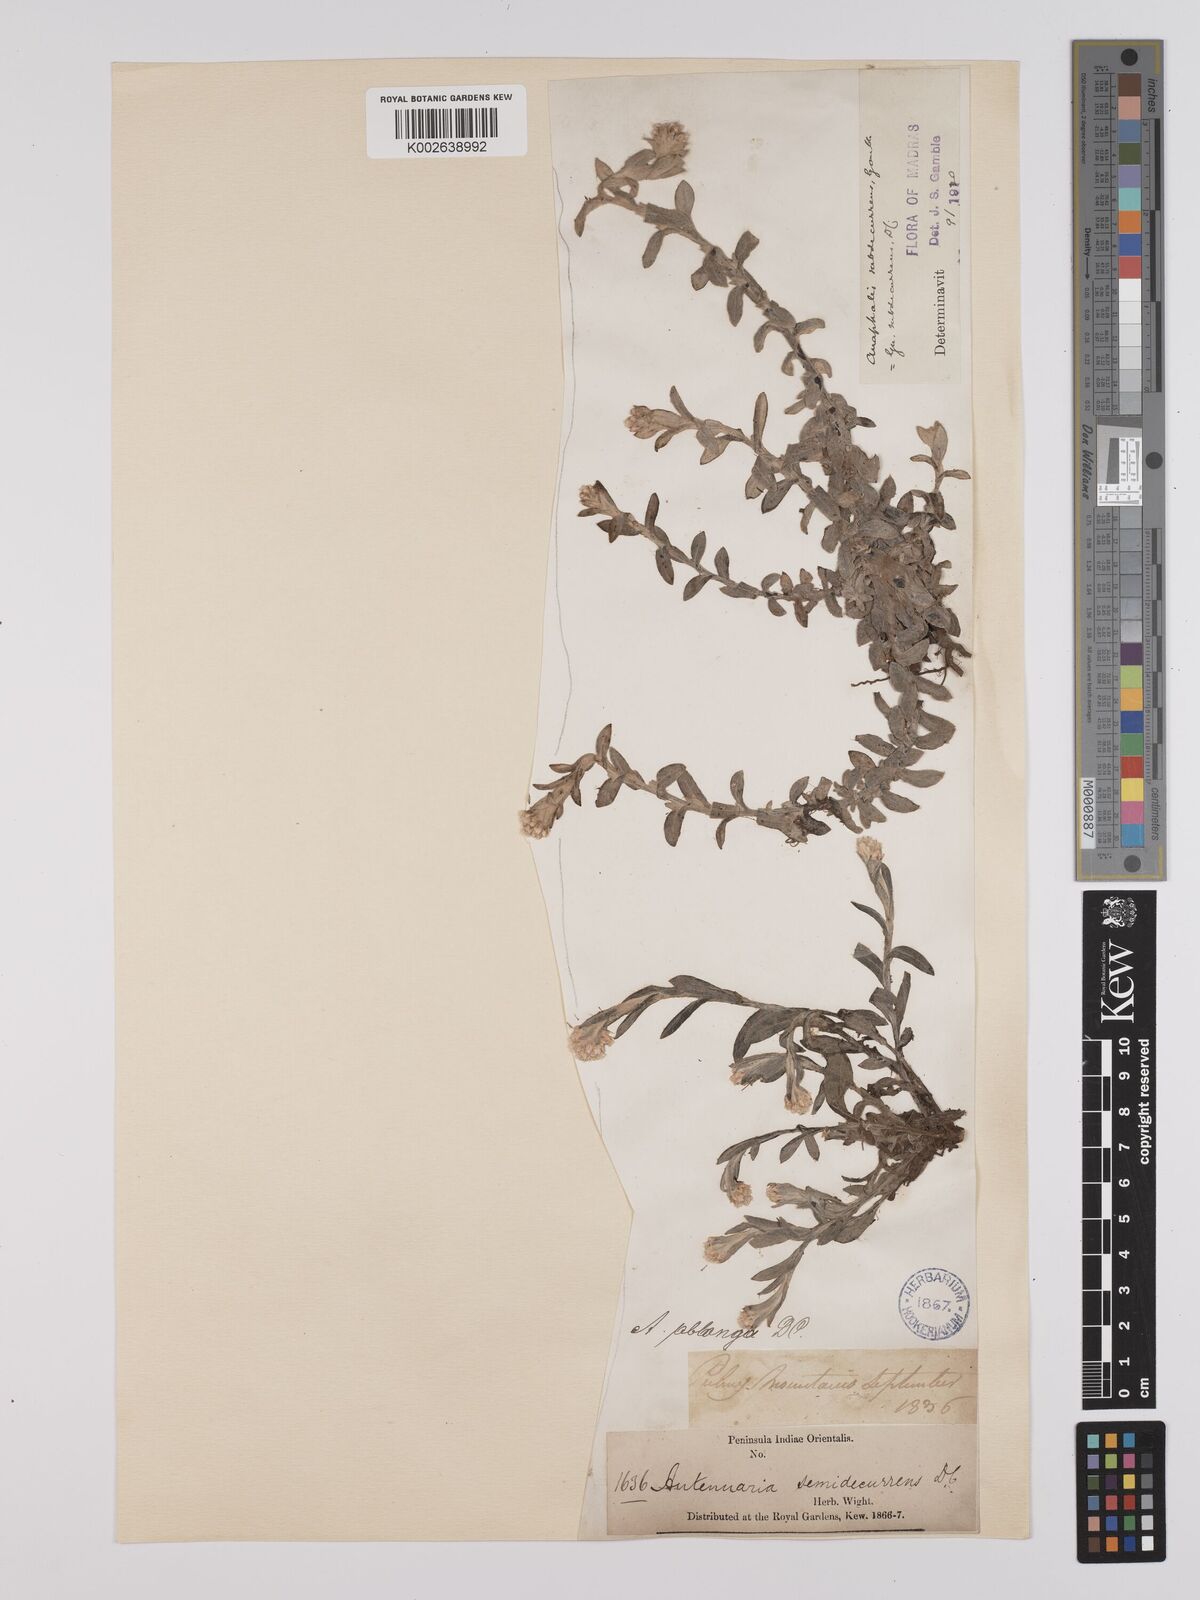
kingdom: Plantae
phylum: Tracheophyta
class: Magnoliopsida
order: Asterales
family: Asteraceae
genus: Anaphalis
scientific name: Anaphalis subdecurrens
